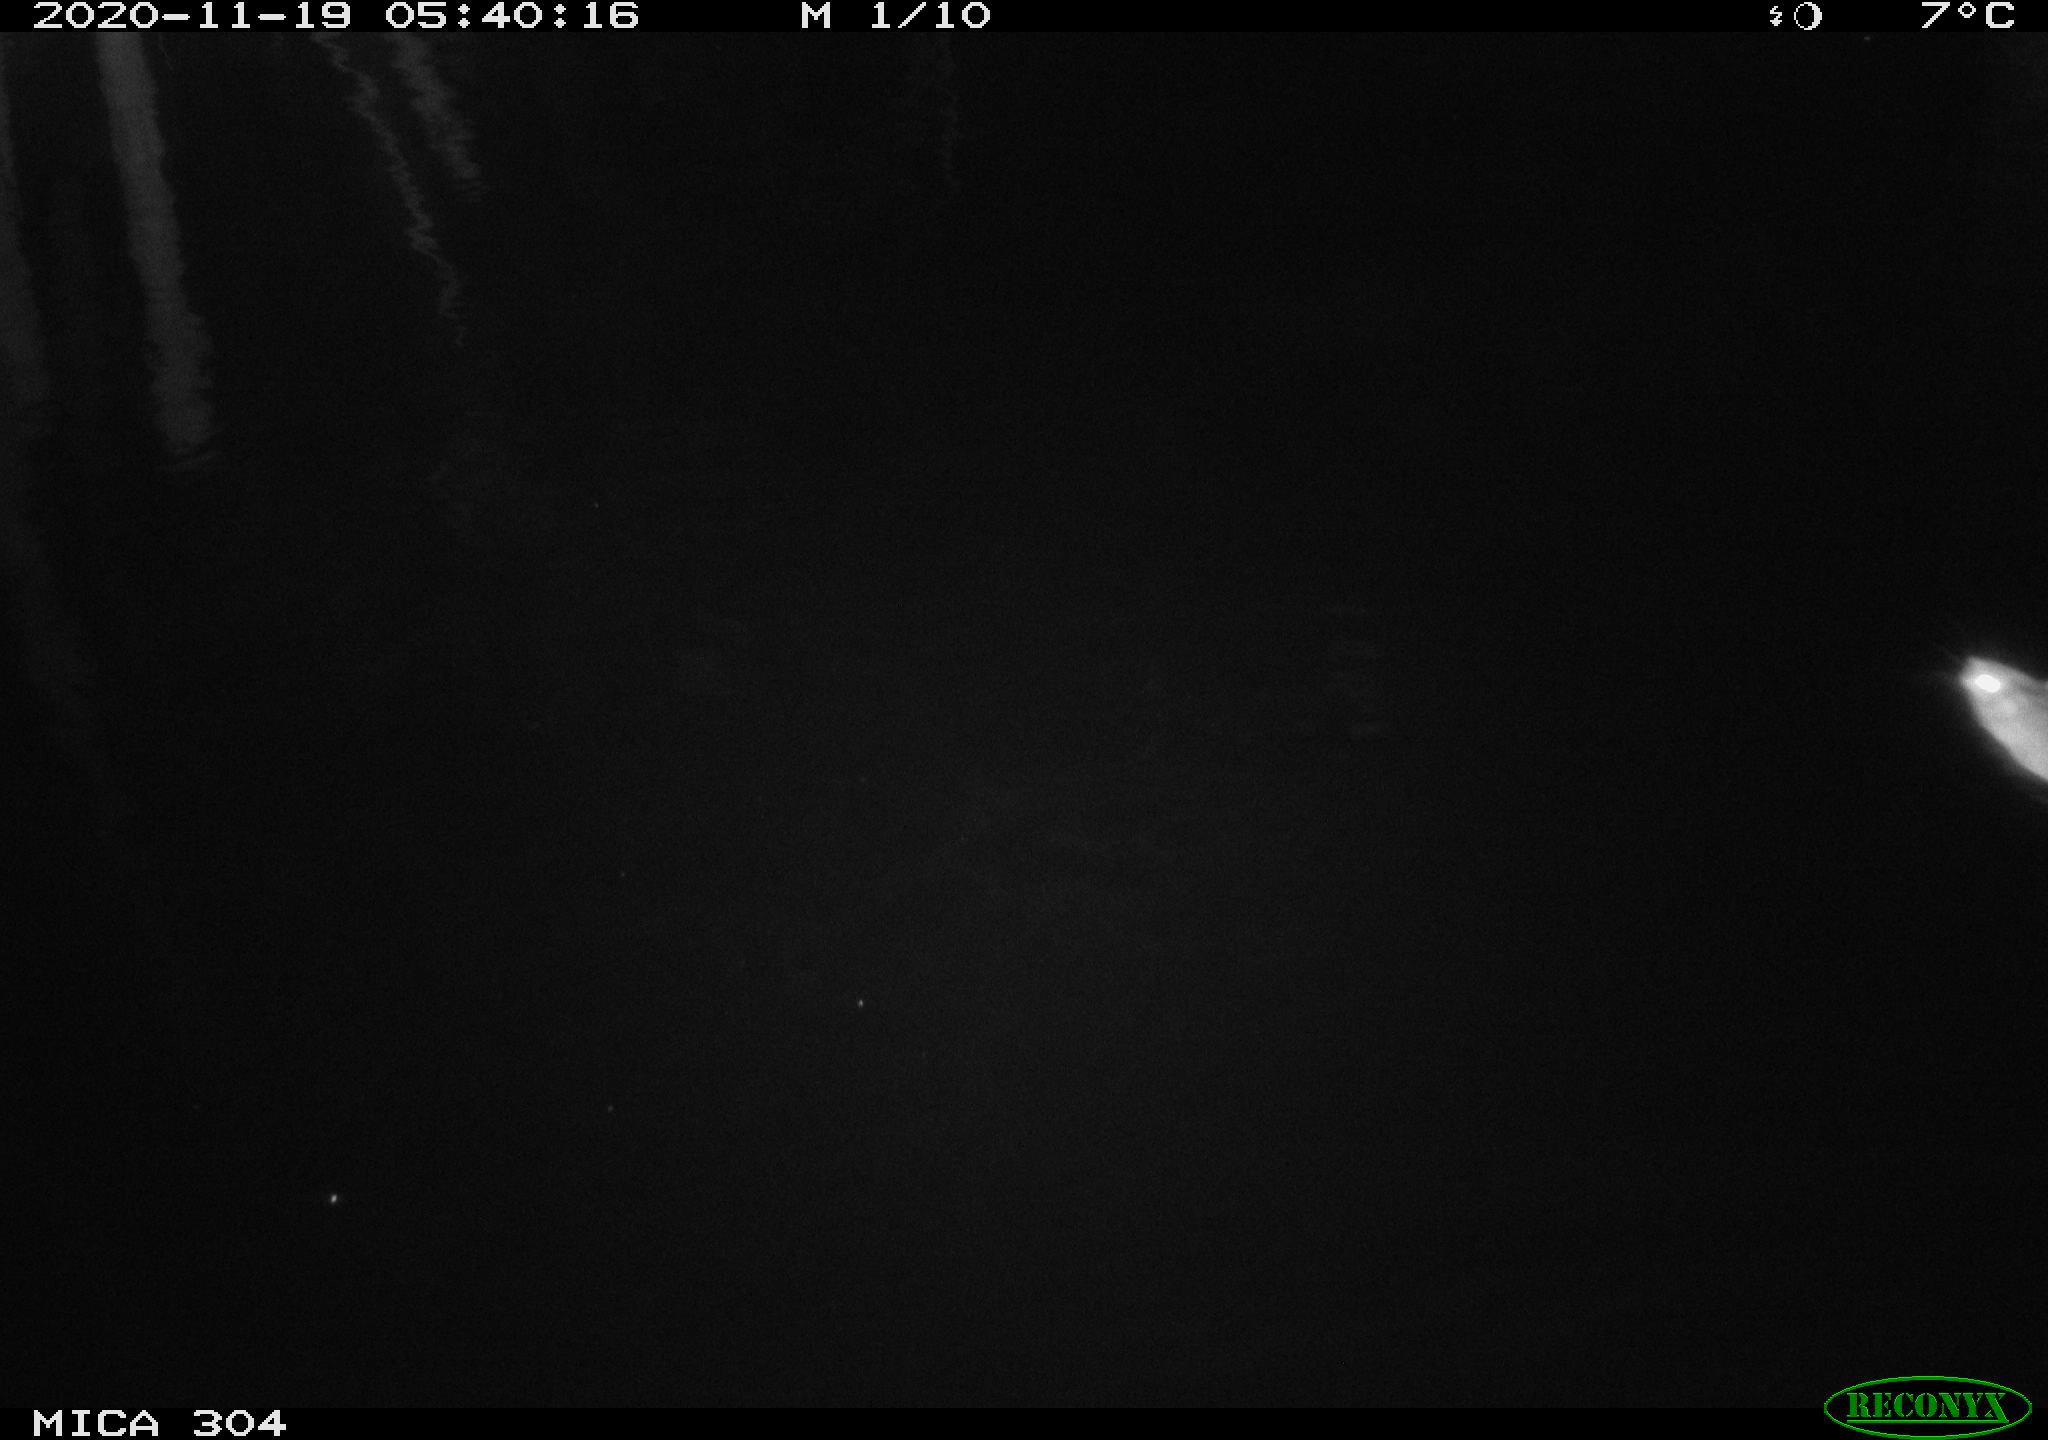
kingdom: Animalia
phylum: Chordata
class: Mammalia
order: Rodentia
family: Muridae
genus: Rattus
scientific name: Rattus norvegicus
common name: Brown rat
